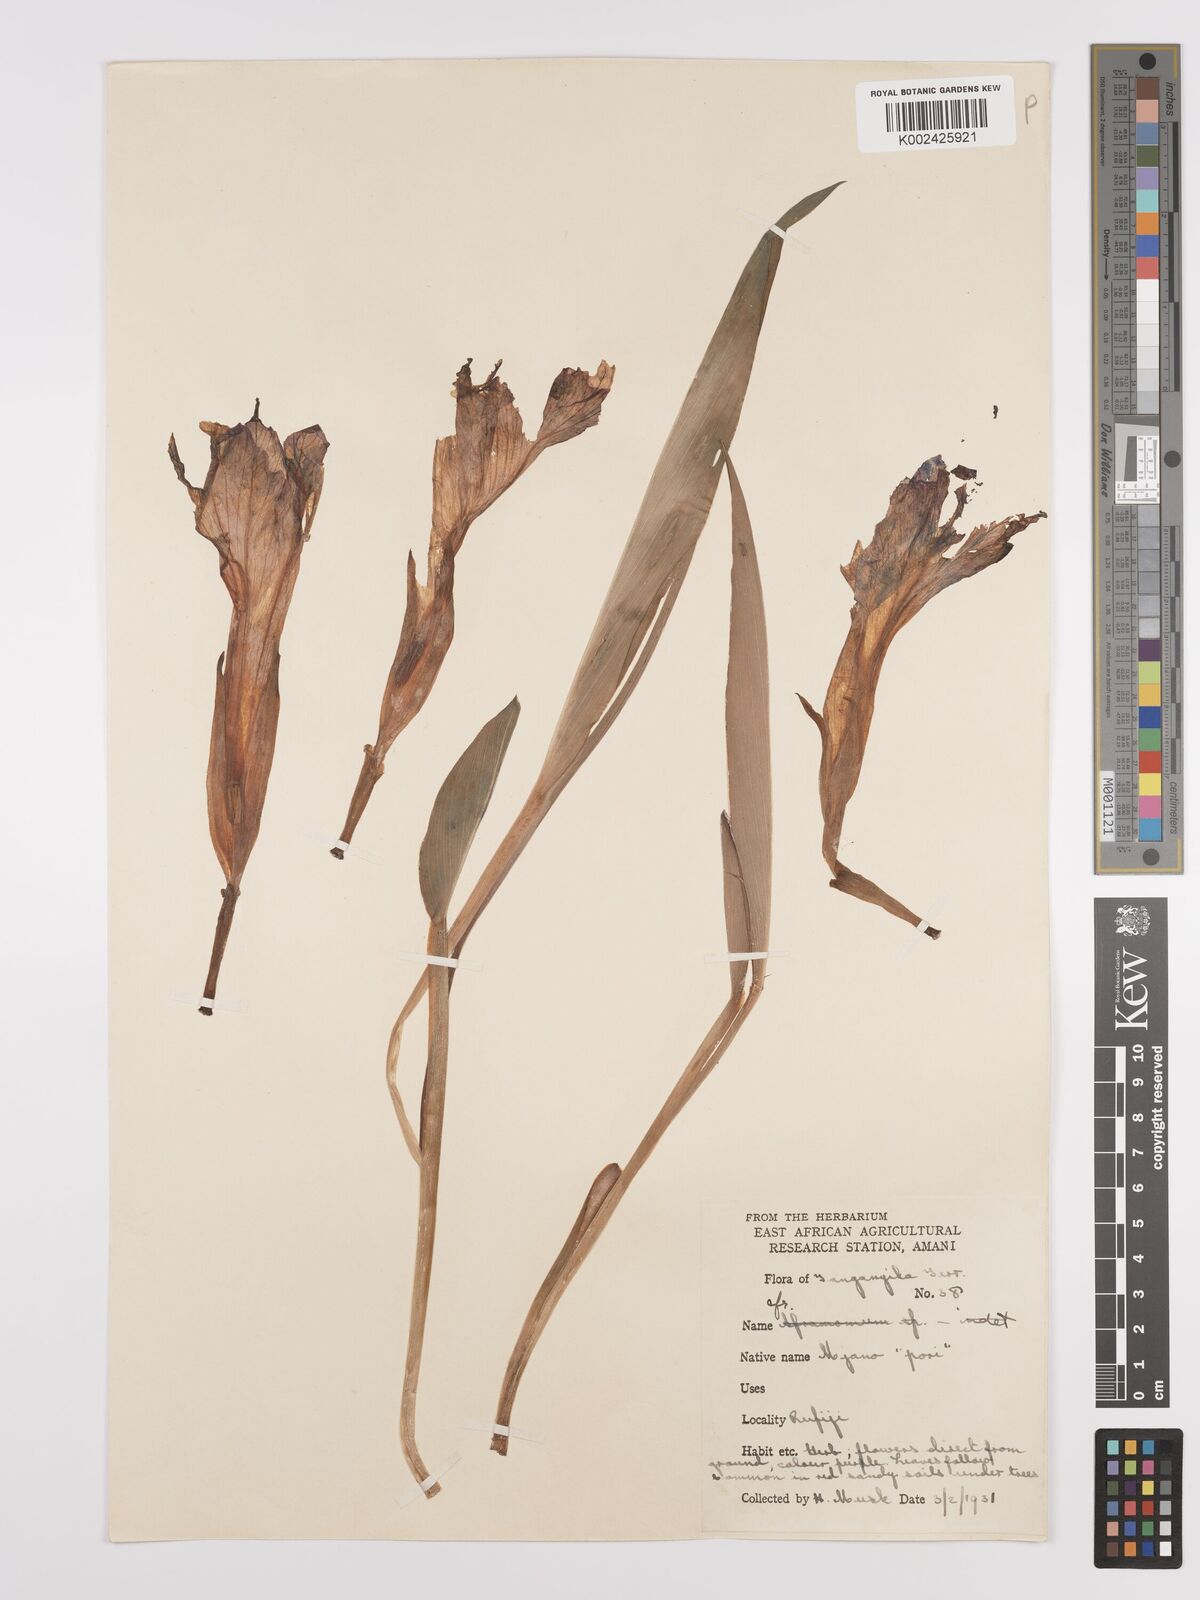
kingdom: Plantae
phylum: Tracheophyta
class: Liliopsida
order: Zingiberales
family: Zingiberaceae
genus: Siphonochilus
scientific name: Siphonochilus aethiopicus
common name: African-ginger
